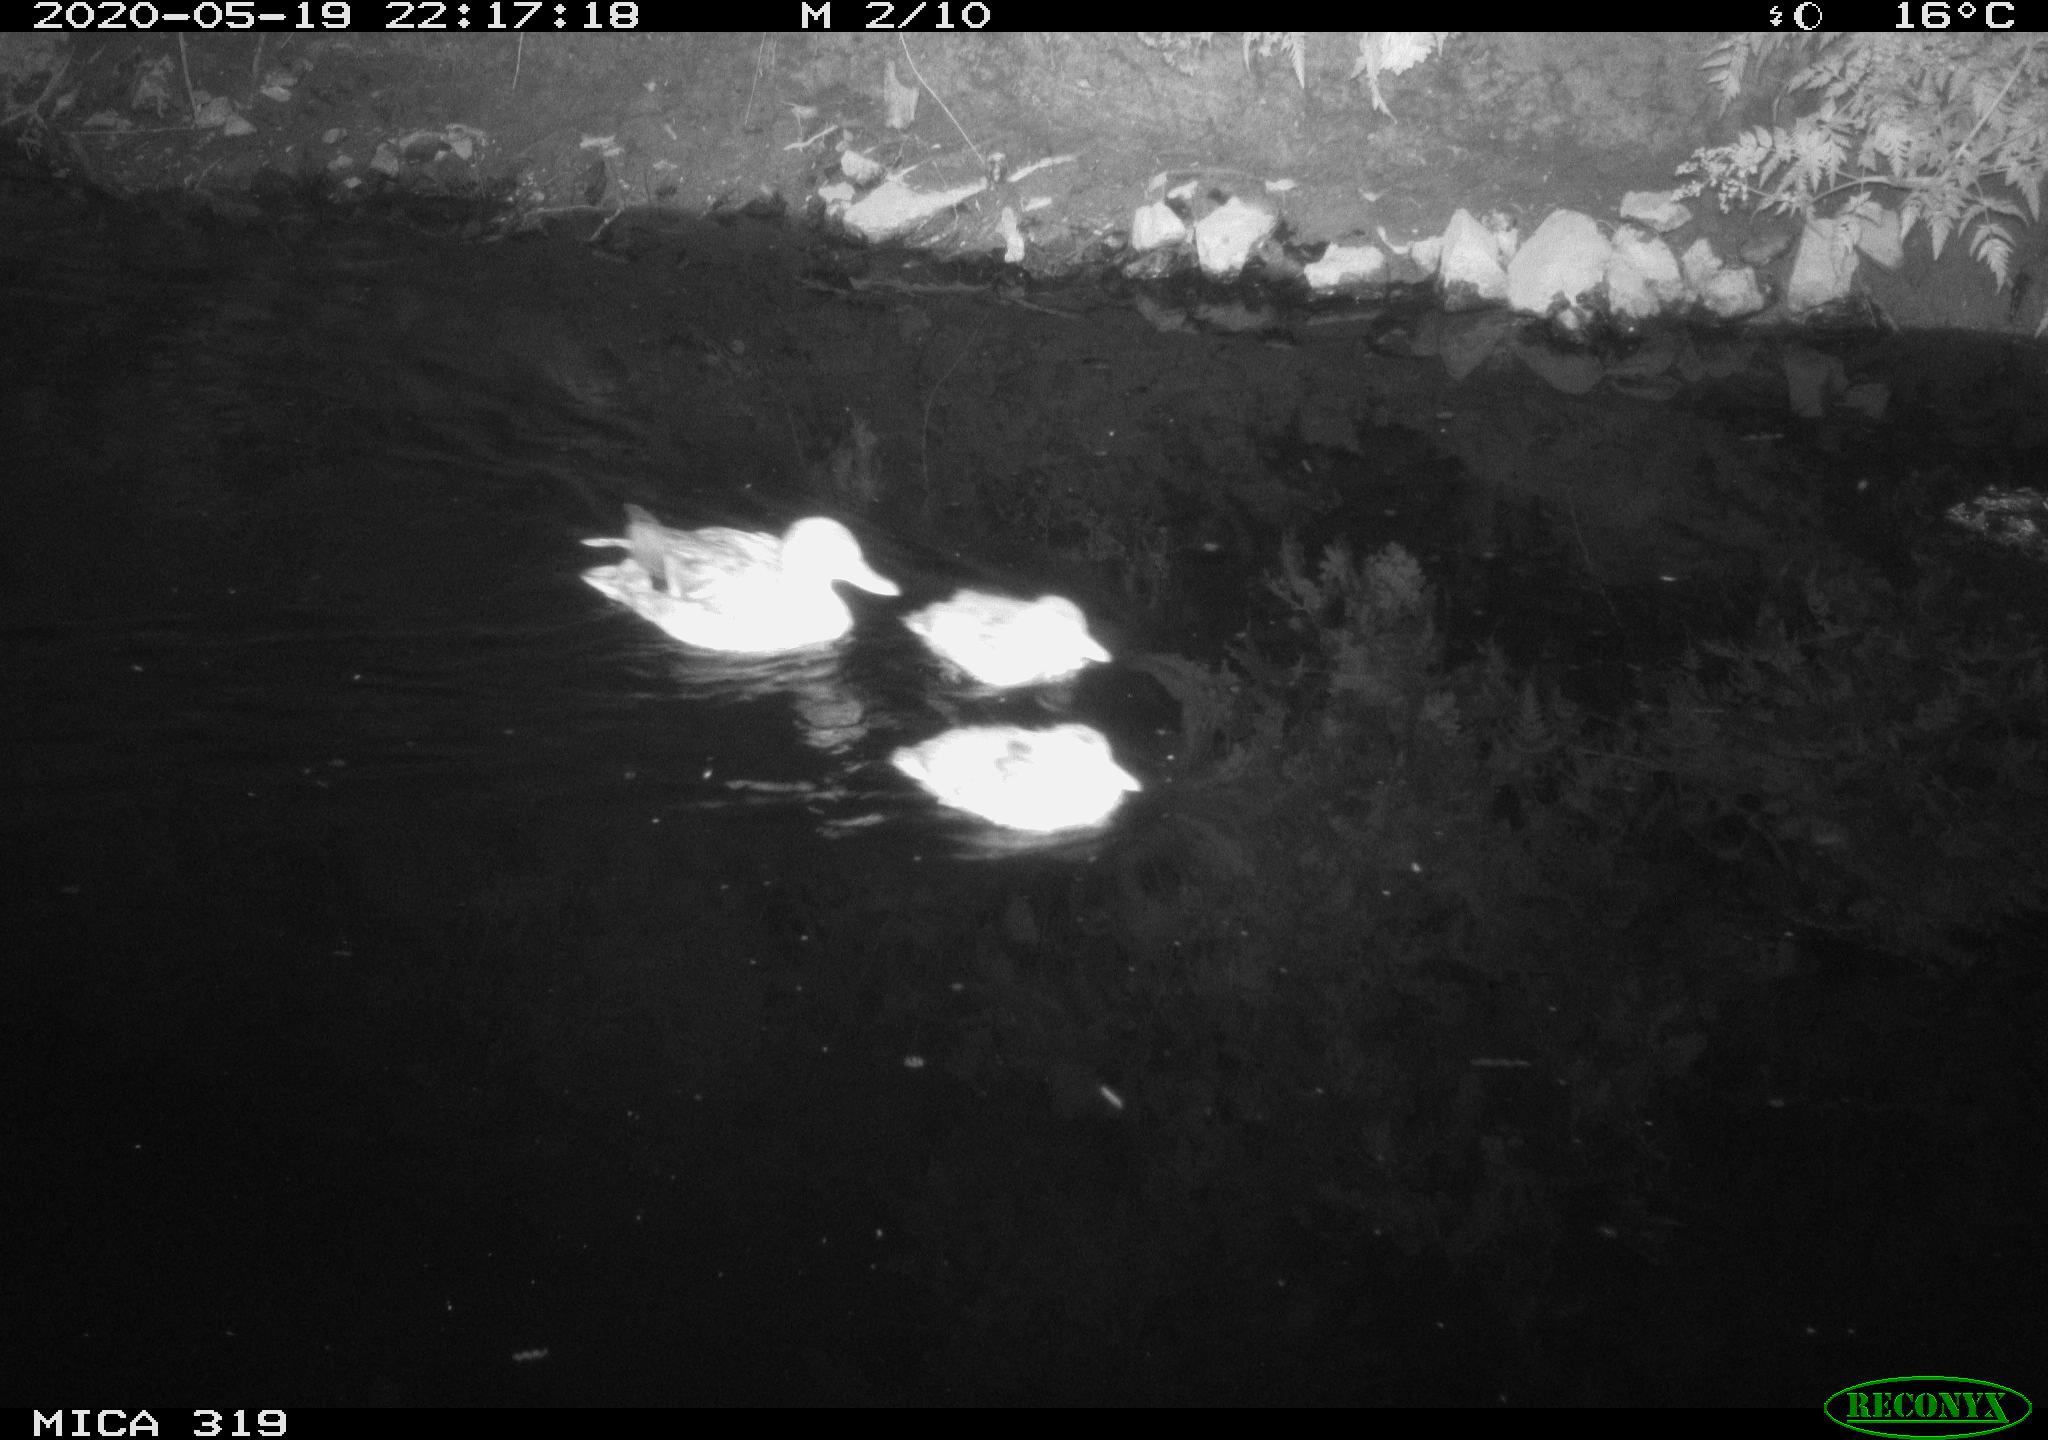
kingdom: Animalia
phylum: Chordata
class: Aves
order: Anseriformes
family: Anatidae
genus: Anas
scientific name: Anas platyrhynchos
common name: Mallard
